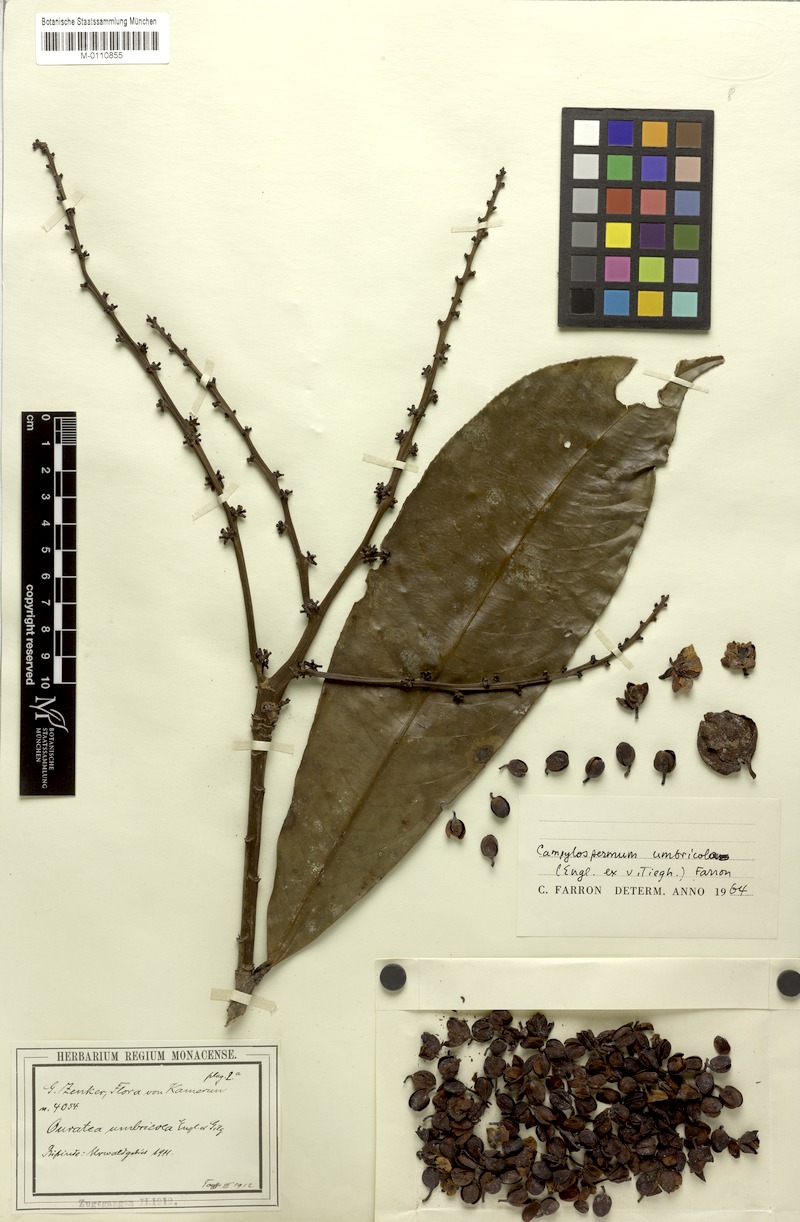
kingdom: Plantae
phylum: Tracheophyta
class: Magnoliopsida
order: Malpighiales
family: Ochnaceae
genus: Campylospermum
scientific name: Campylospermum umbricola
